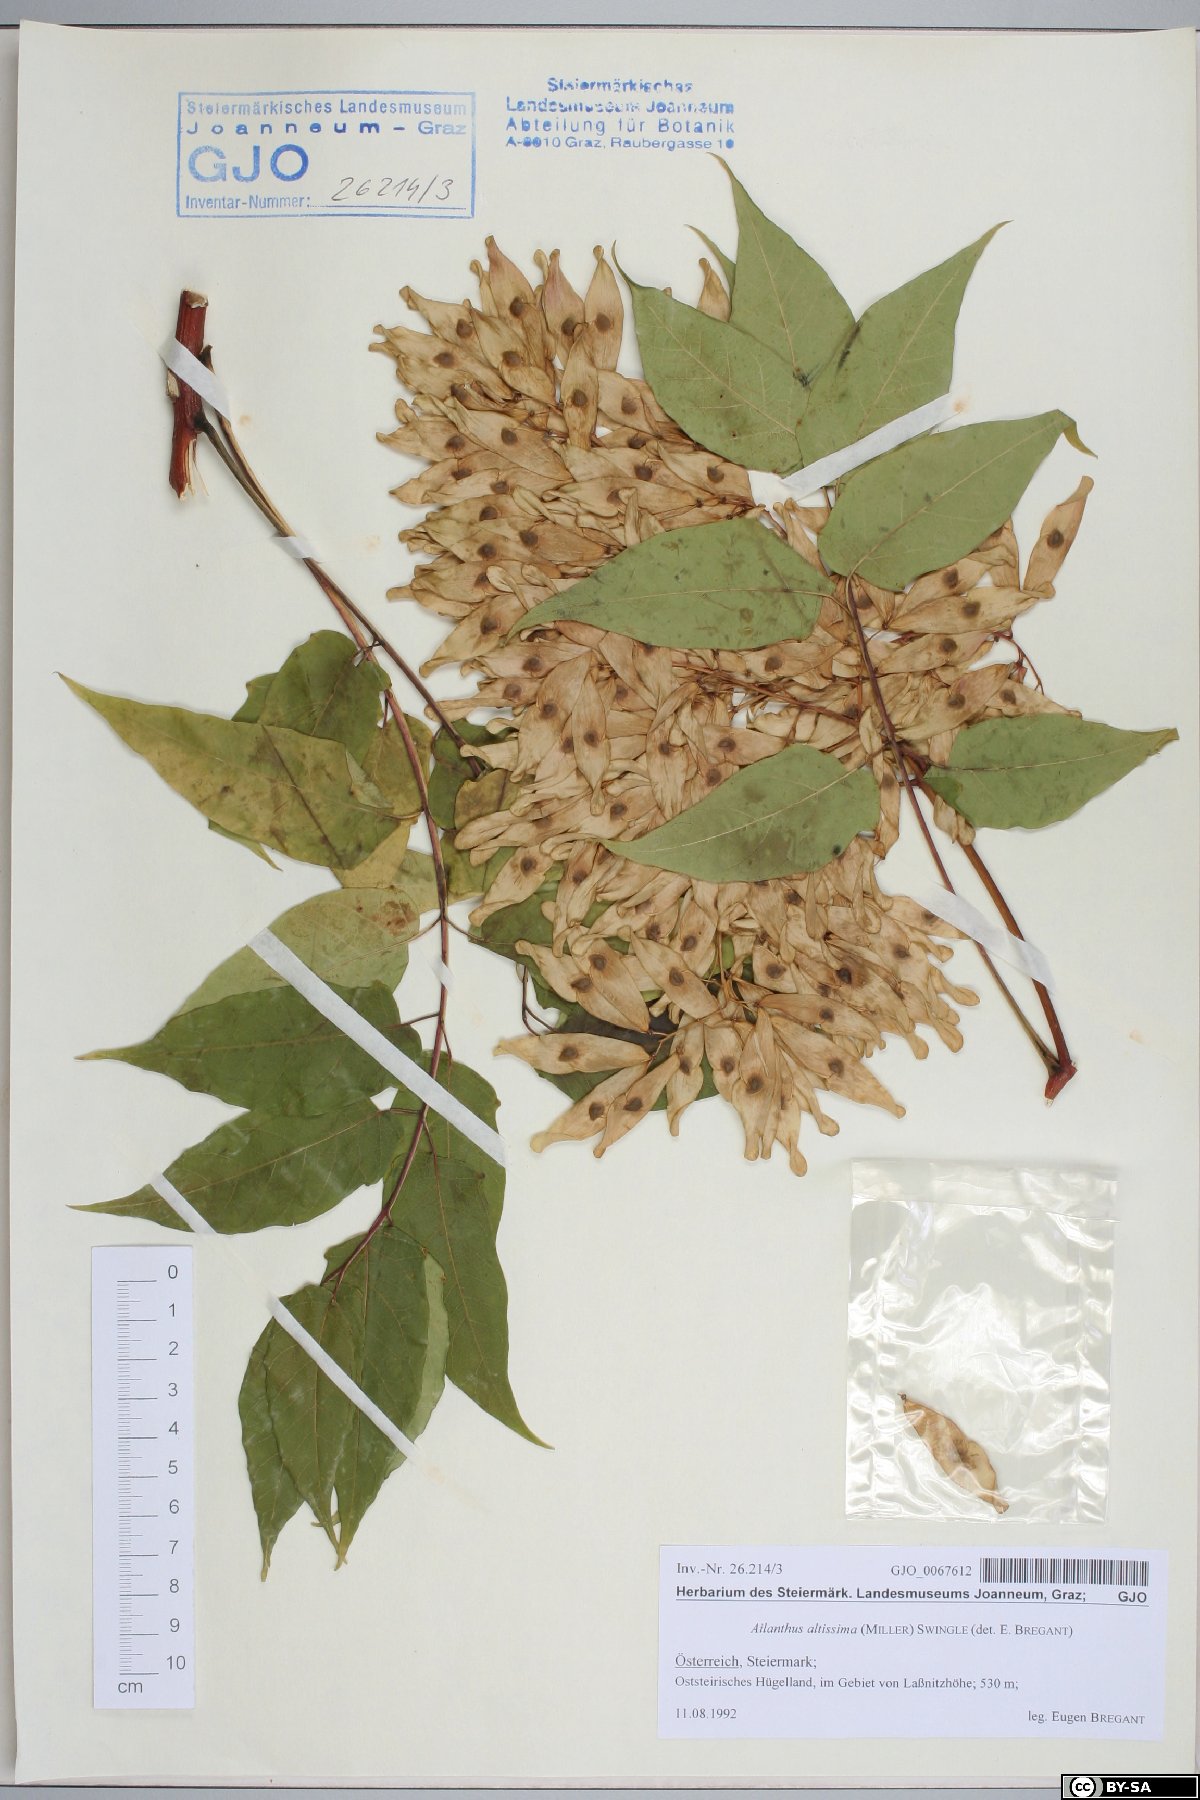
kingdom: Plantae
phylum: Tracheophyta
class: Magnoliopsida
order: Sapindales
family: Simaroubaceae
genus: Ailanthus
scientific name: Ailanthus altissima
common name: Tree-of-heaven
